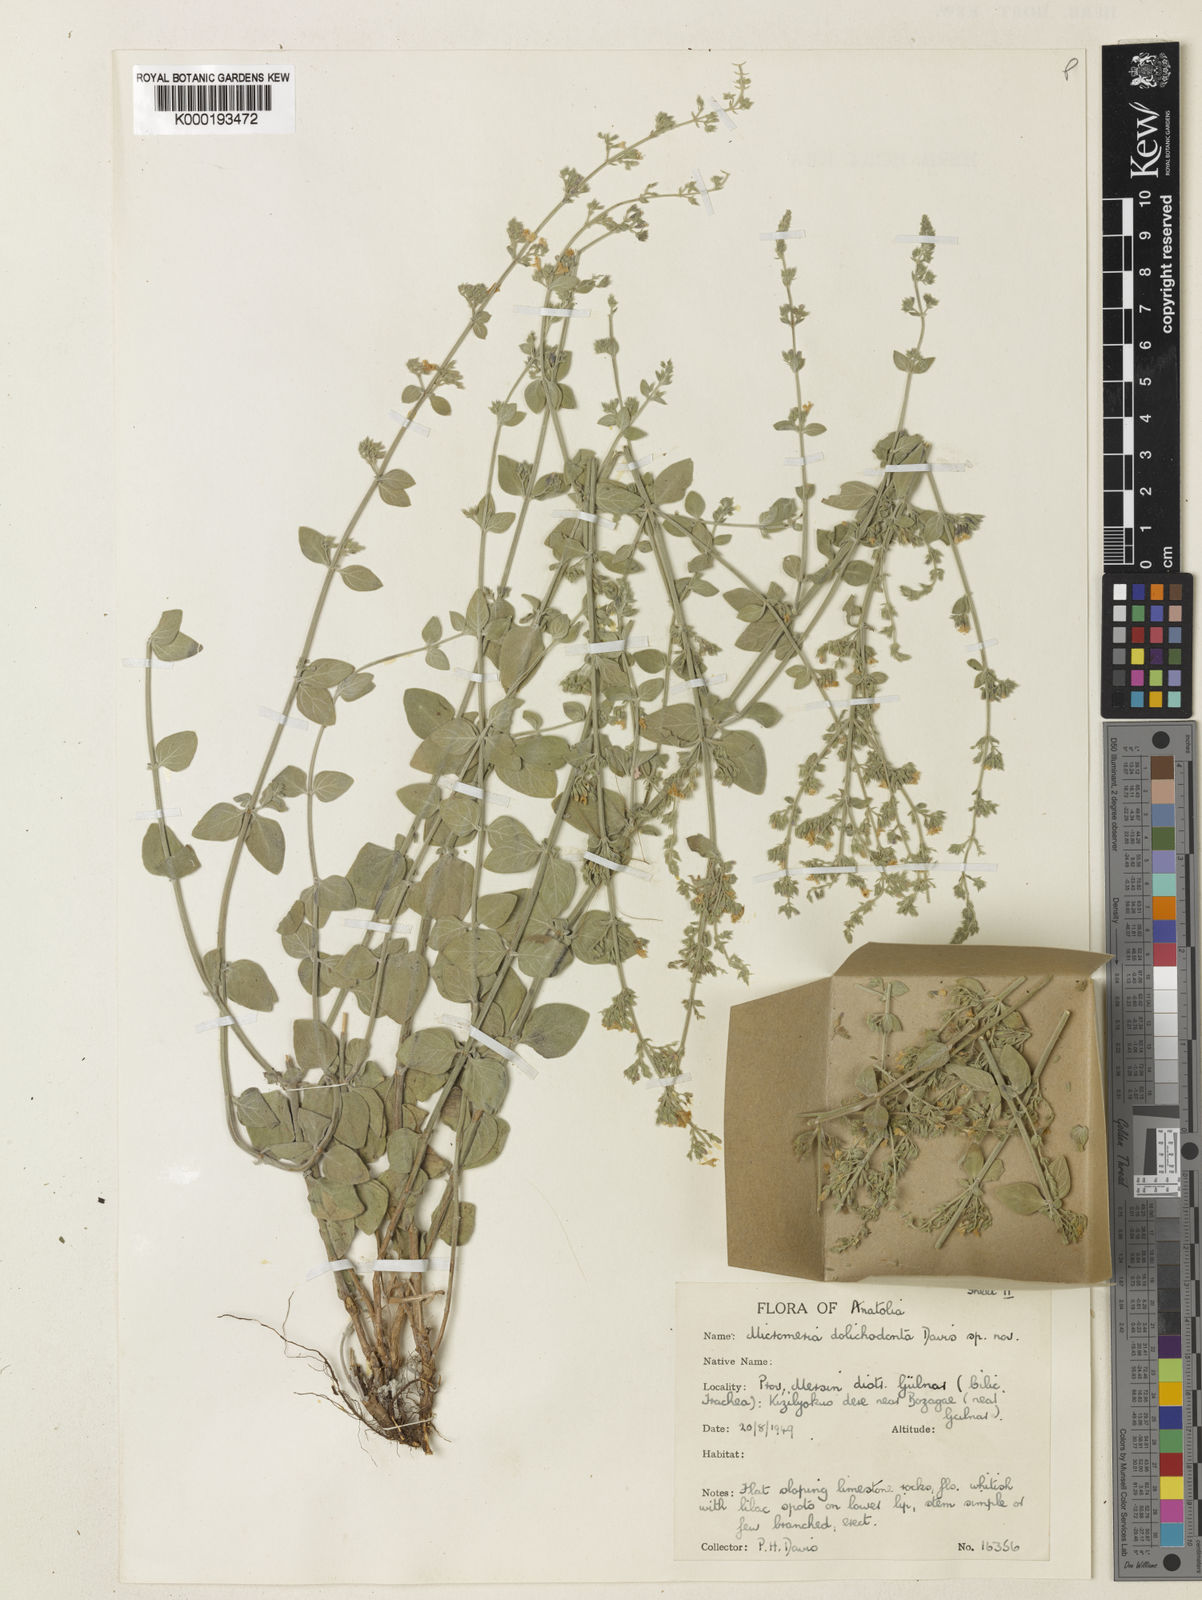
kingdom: Plantae
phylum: Tracheophyta
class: Magnoliopsida
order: Lamiales
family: Lamiaceae
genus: Clinopodium
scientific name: Clinopodium dolichodontum
